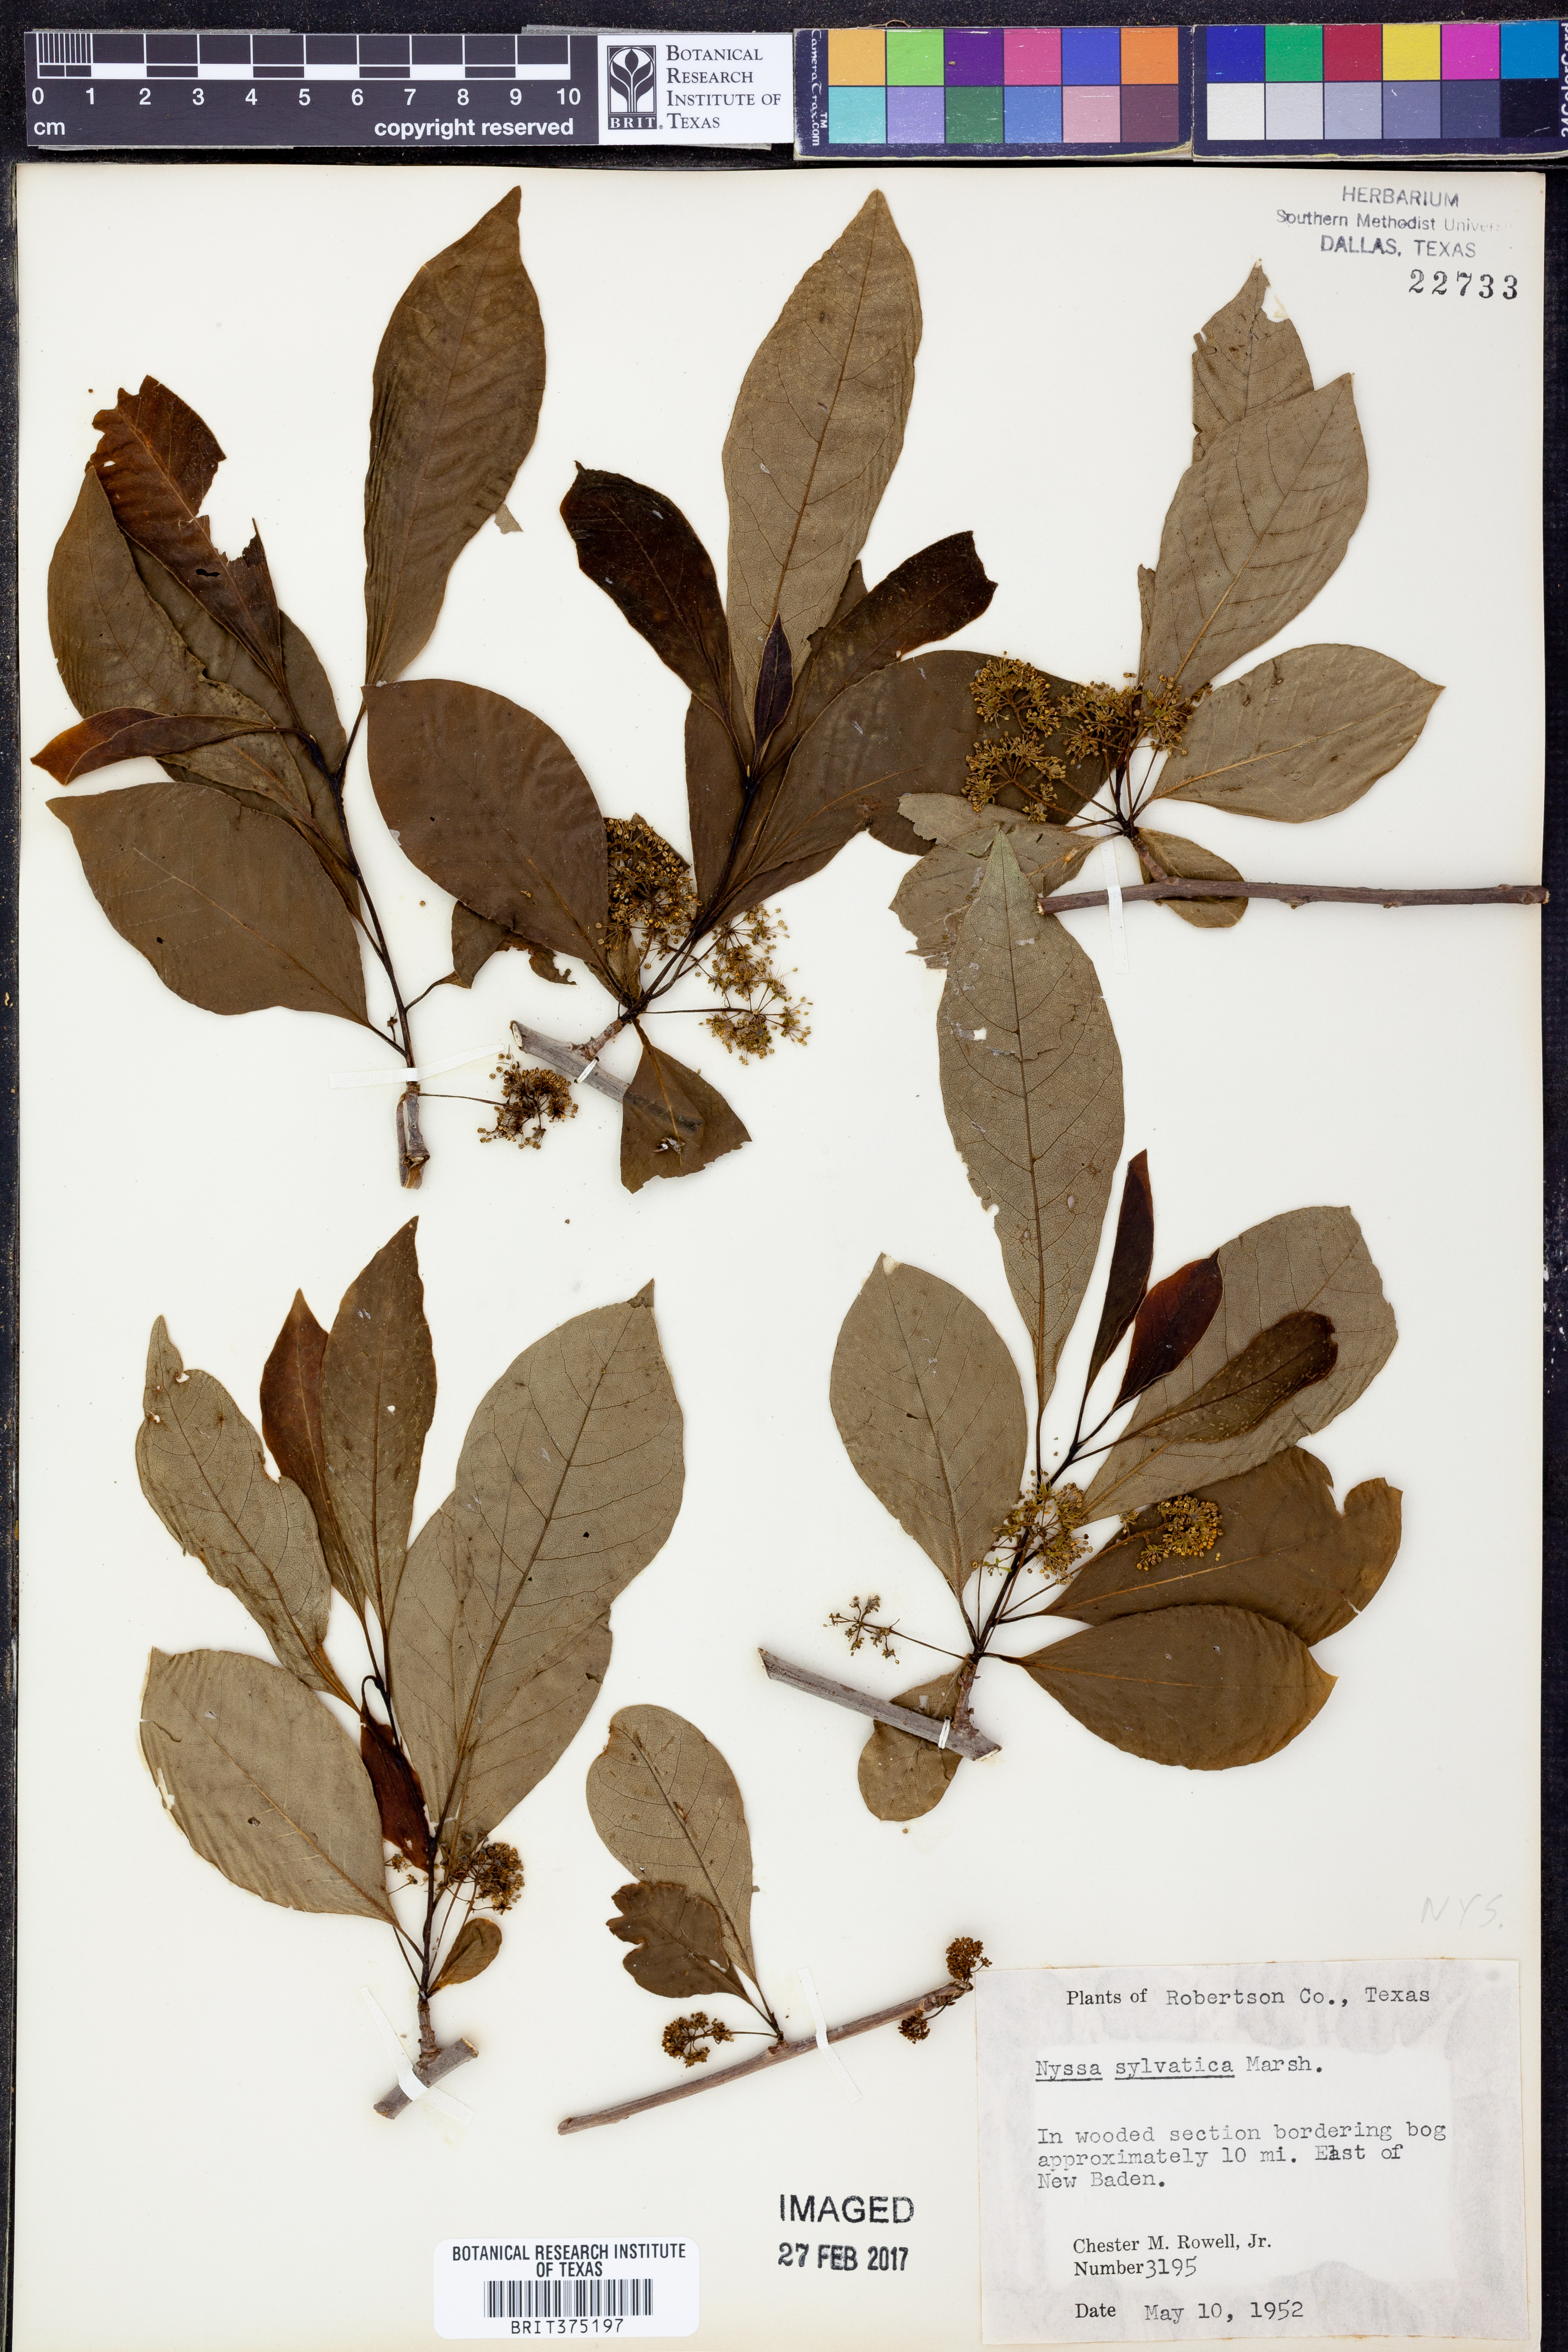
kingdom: Plantae
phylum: Tracheophyta
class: Magnoliopsida
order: Cornales
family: Nyssaceae
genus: Nyssa
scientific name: Nyssa sylvatica
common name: Black tupelo
